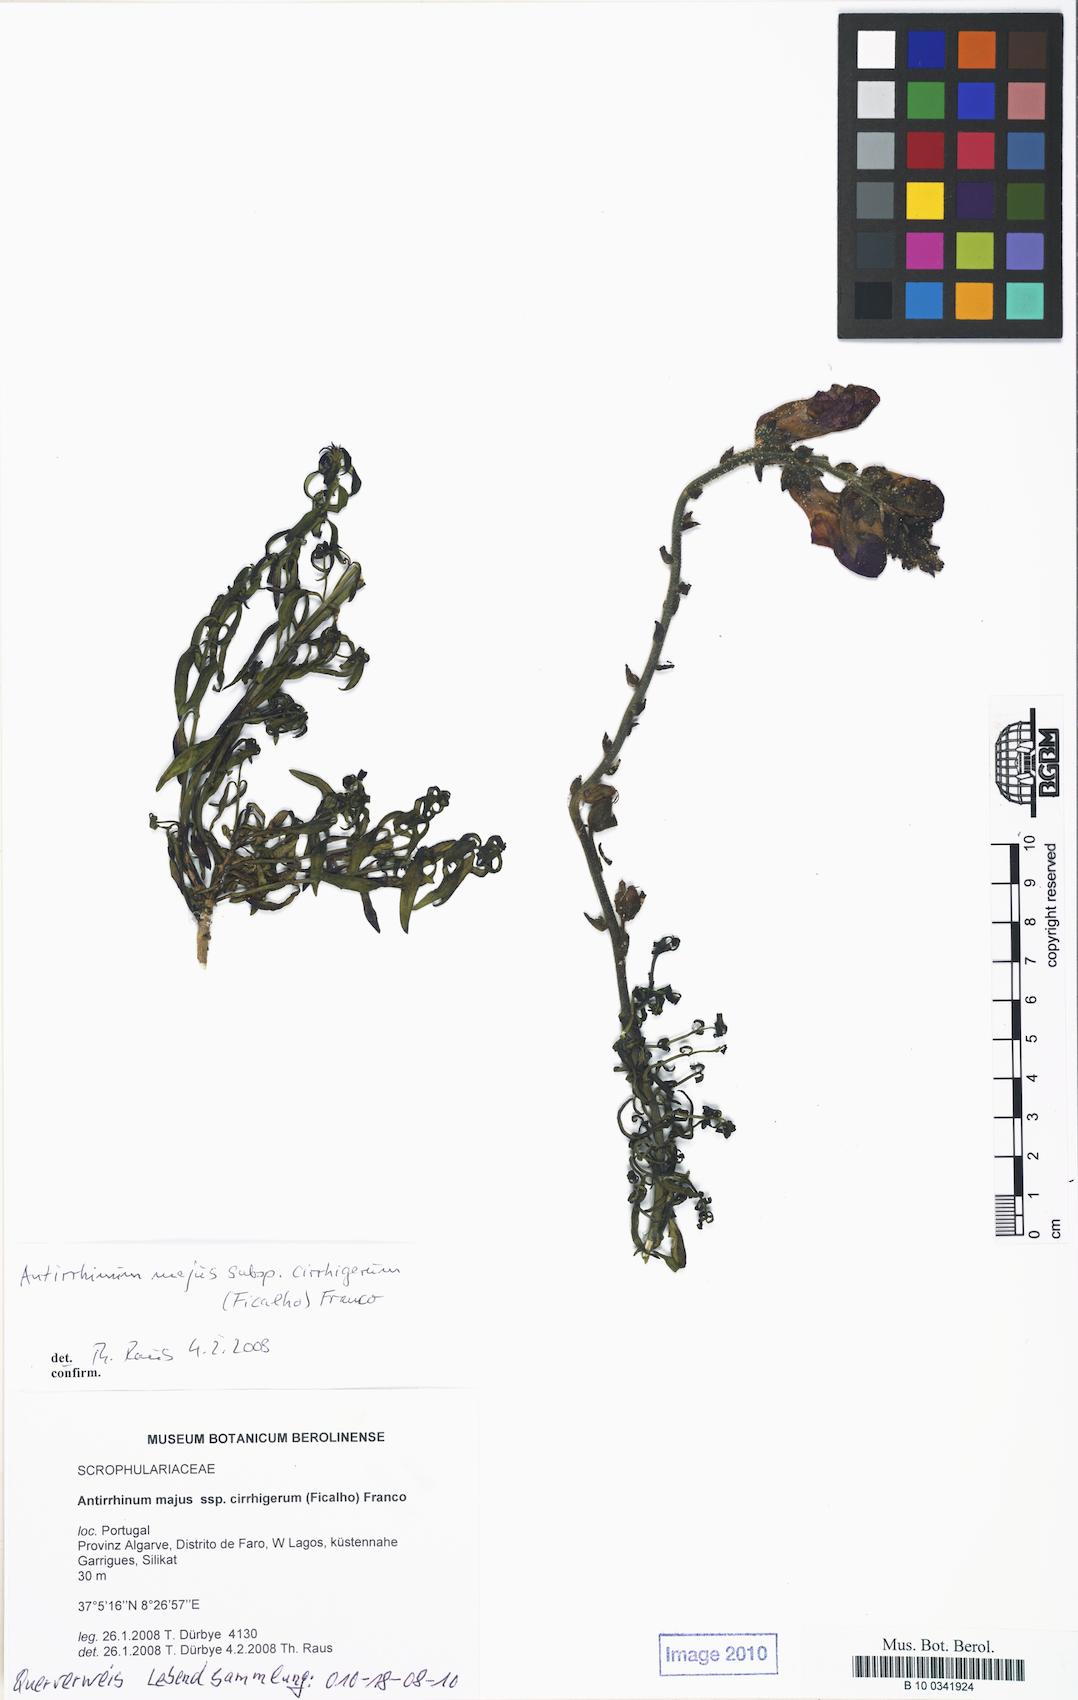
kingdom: Plantae
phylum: Tracheophyta
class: Magnoliopsida
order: Lamiales
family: Plantaginaceae
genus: Antirrhinum
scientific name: Antirrhinum cirrhigerum
